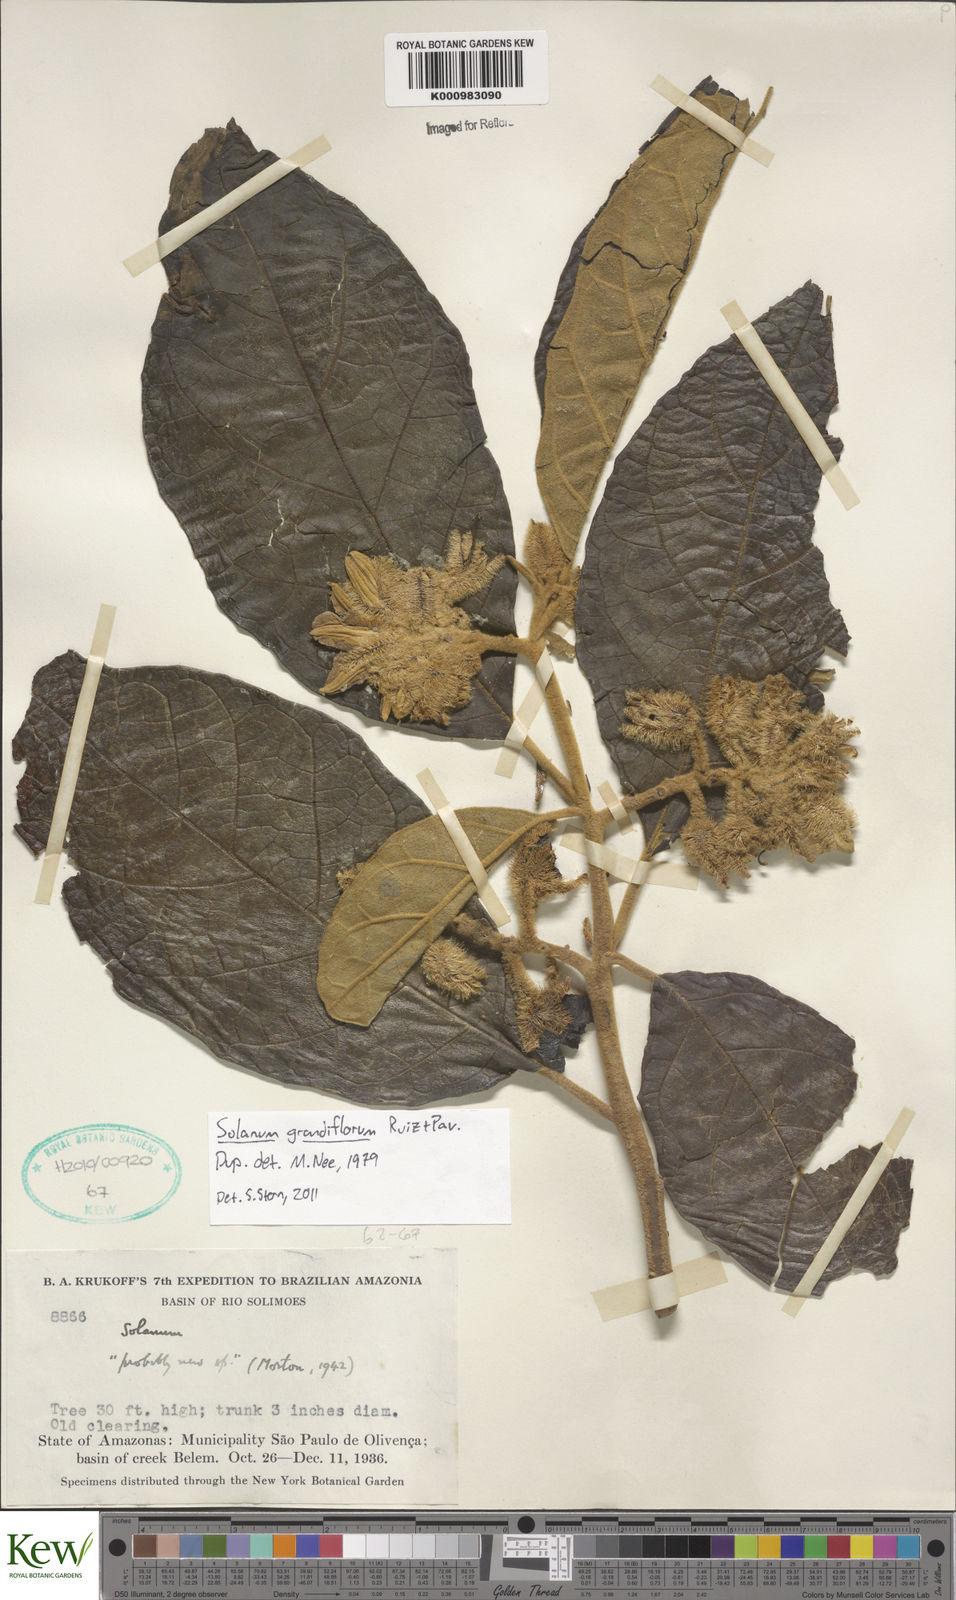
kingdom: Plantae
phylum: Tracheophyta
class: Magnoliopsida
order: Solanales
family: Solanaceae
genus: Solanum
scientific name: Solanum grandiflorum
